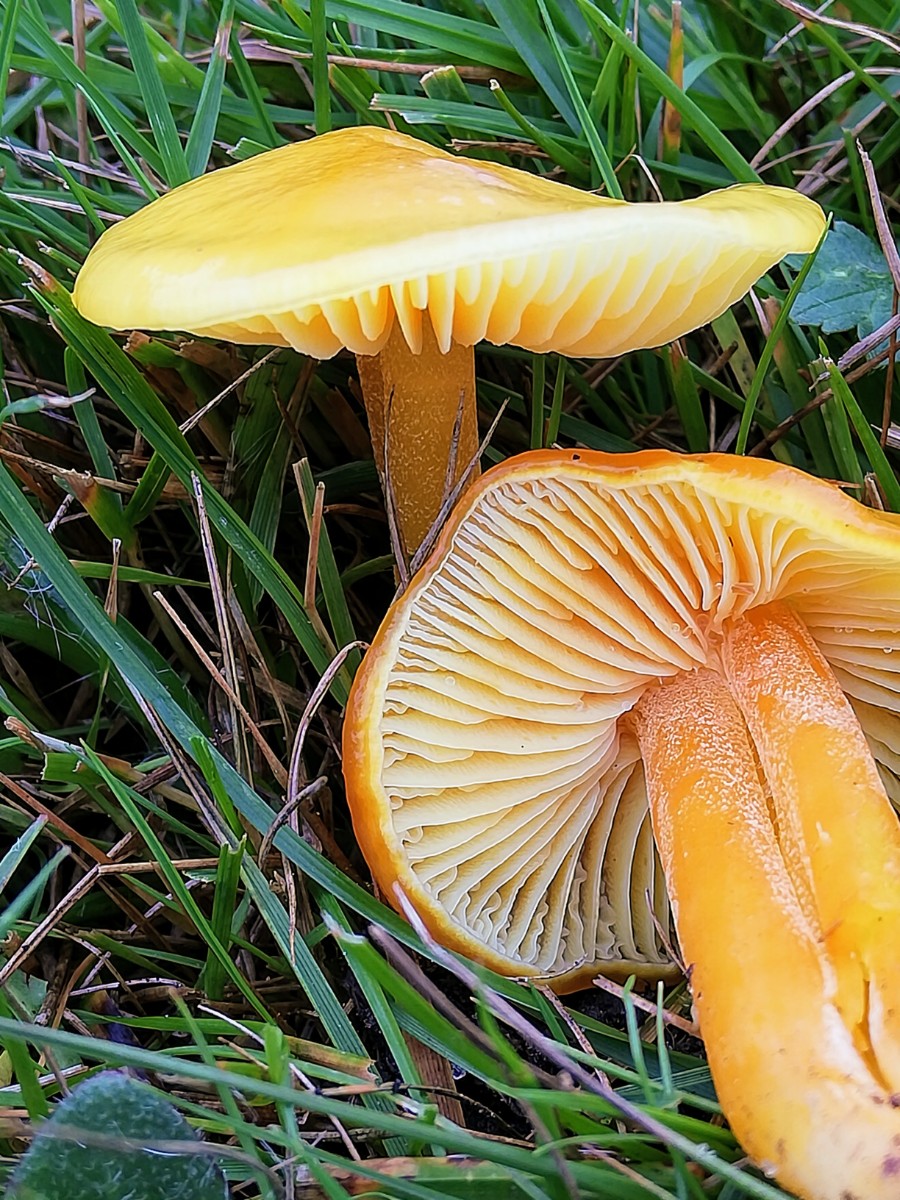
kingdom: Fungi
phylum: Basidiomycota
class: Agaricomycetes
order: Agaricales
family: Hygrophoraceae
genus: Hygrocybe
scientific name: Hygrocybe chlorophana
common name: gul vokshat
